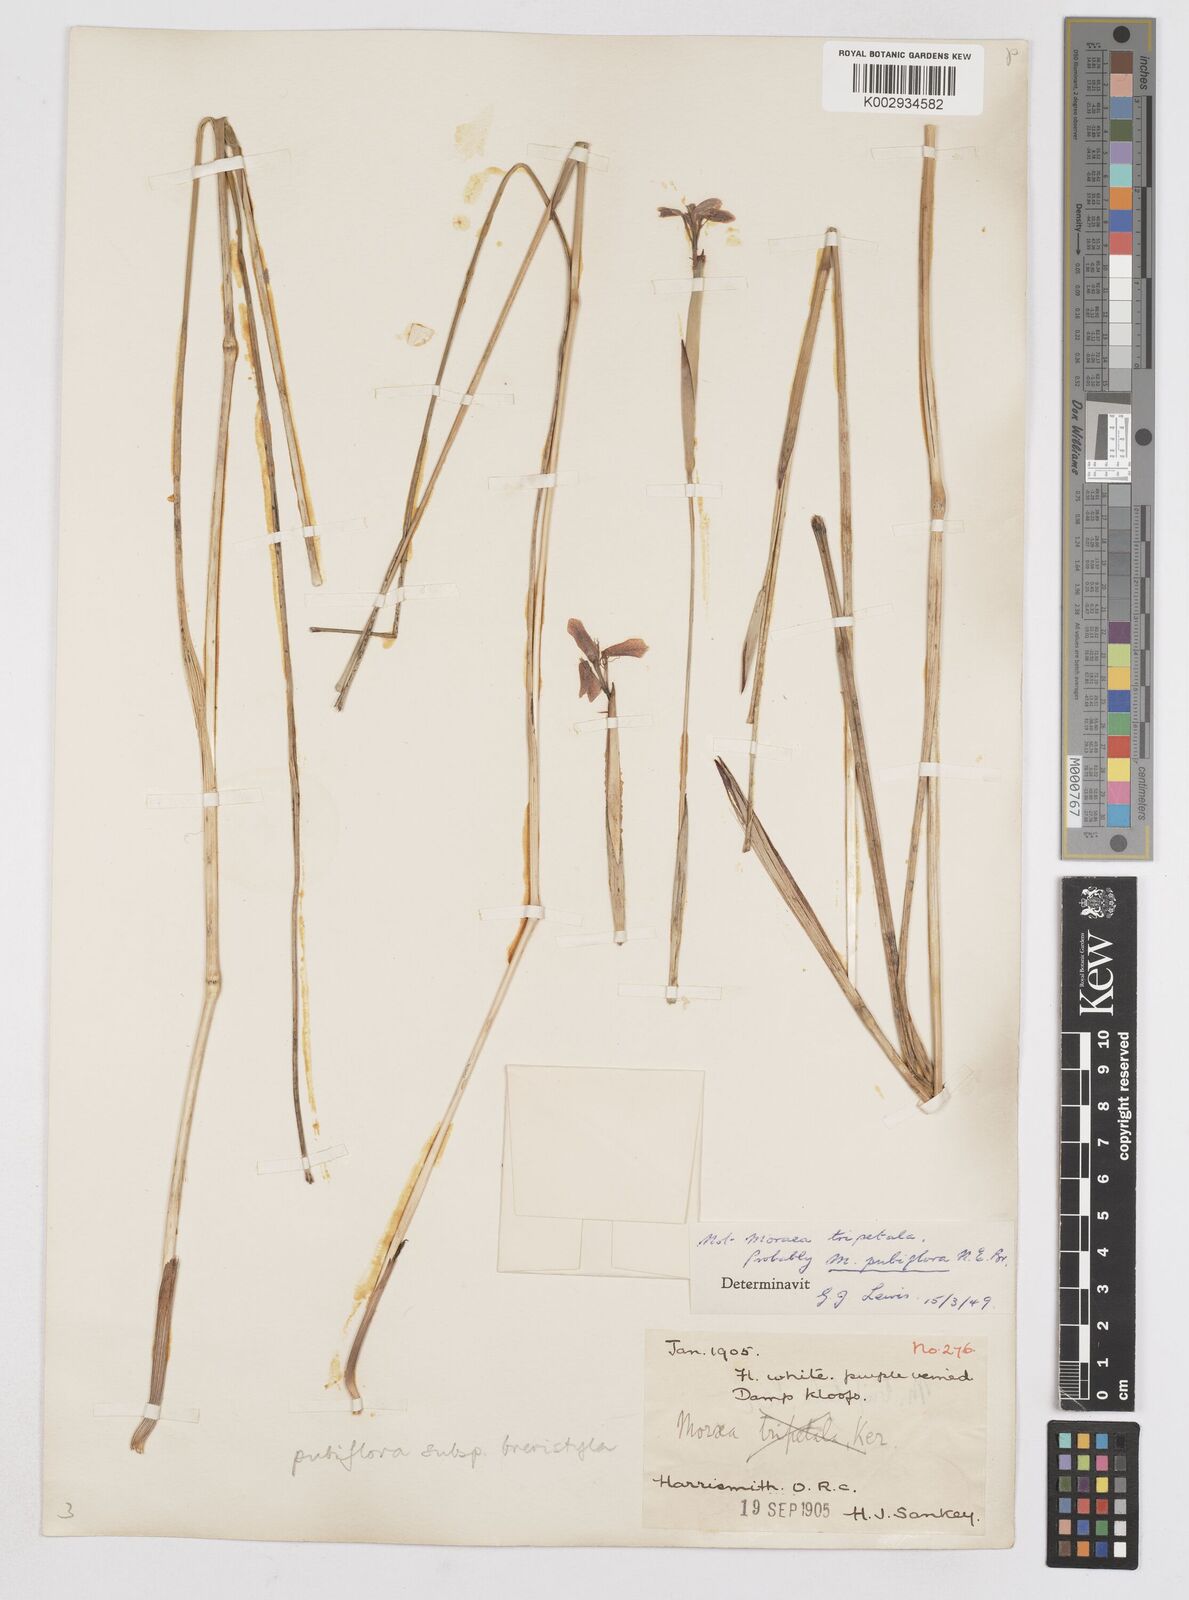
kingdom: Plantae
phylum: Tracheophyta
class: Liliopsida
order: Asparagales
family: Iridaceae
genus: Moraea
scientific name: Moraea brevistyla
